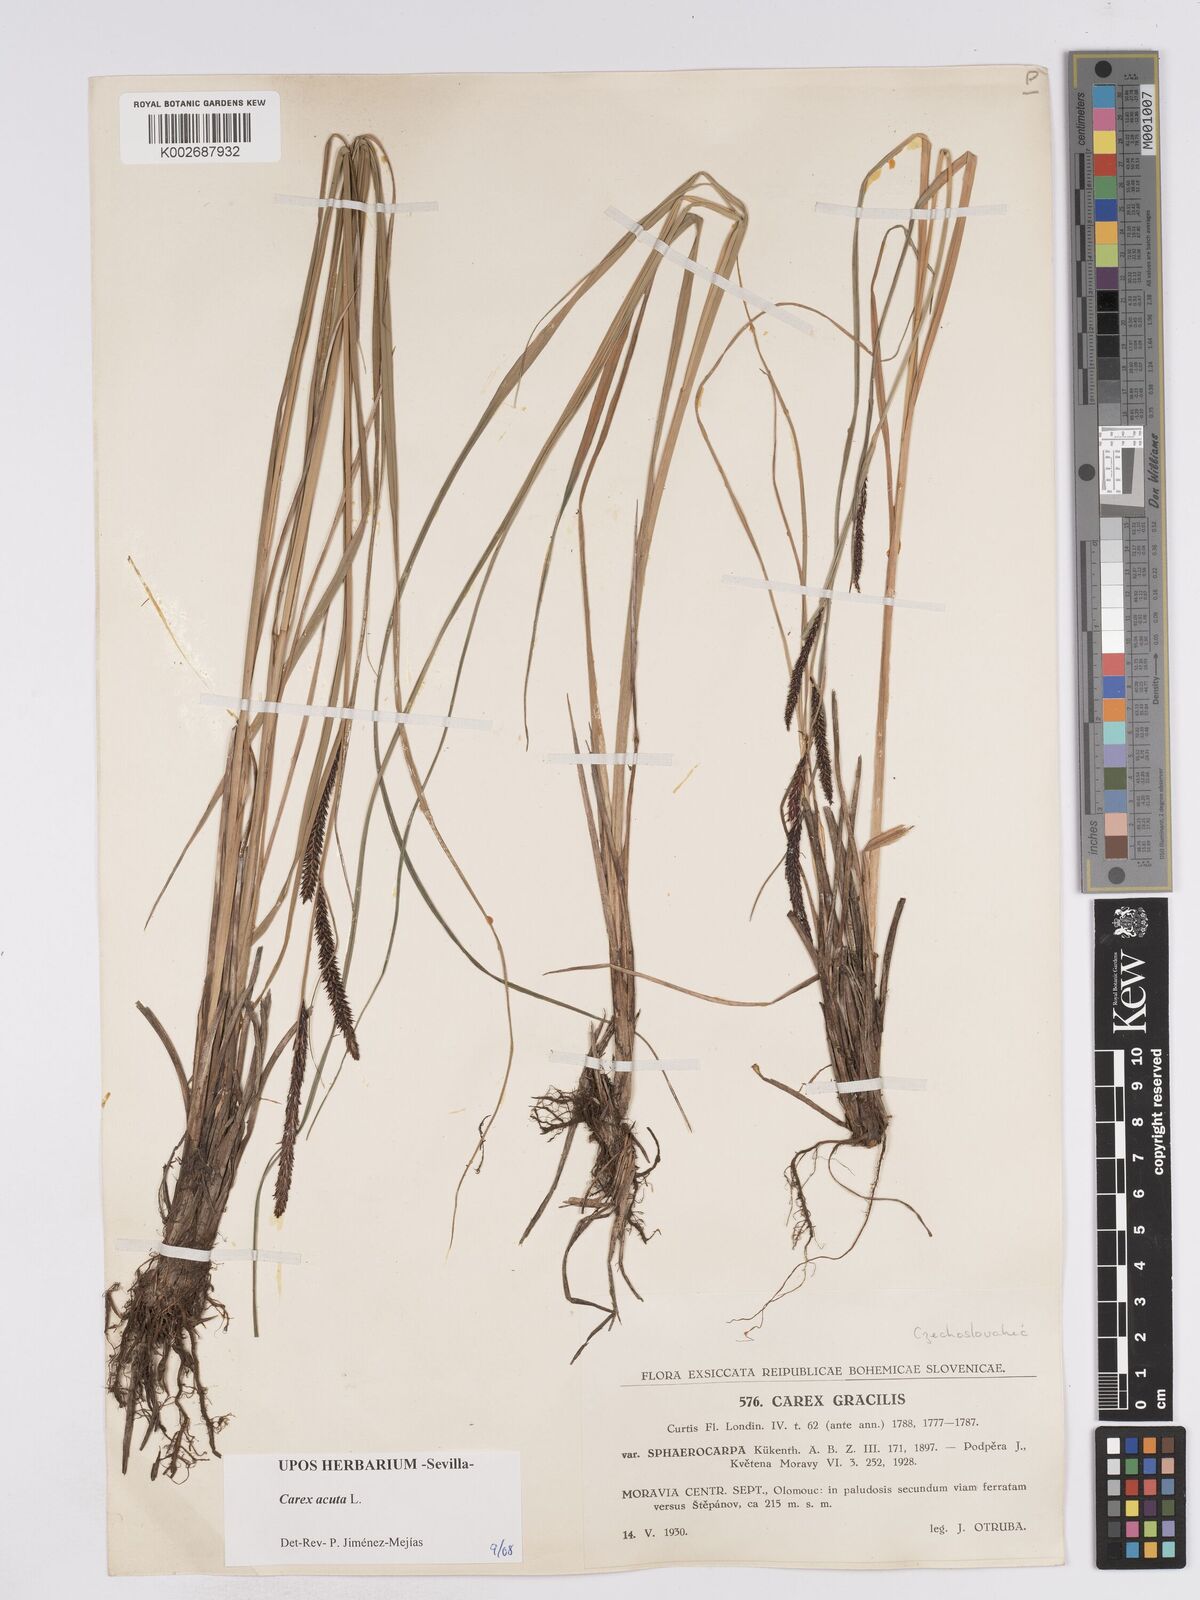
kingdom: Plantae
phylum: Tracheophyta
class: Liliopsida
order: Poales
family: Cyperaceae
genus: Carex
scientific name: Carex acuta
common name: Slender tufted-sedge
